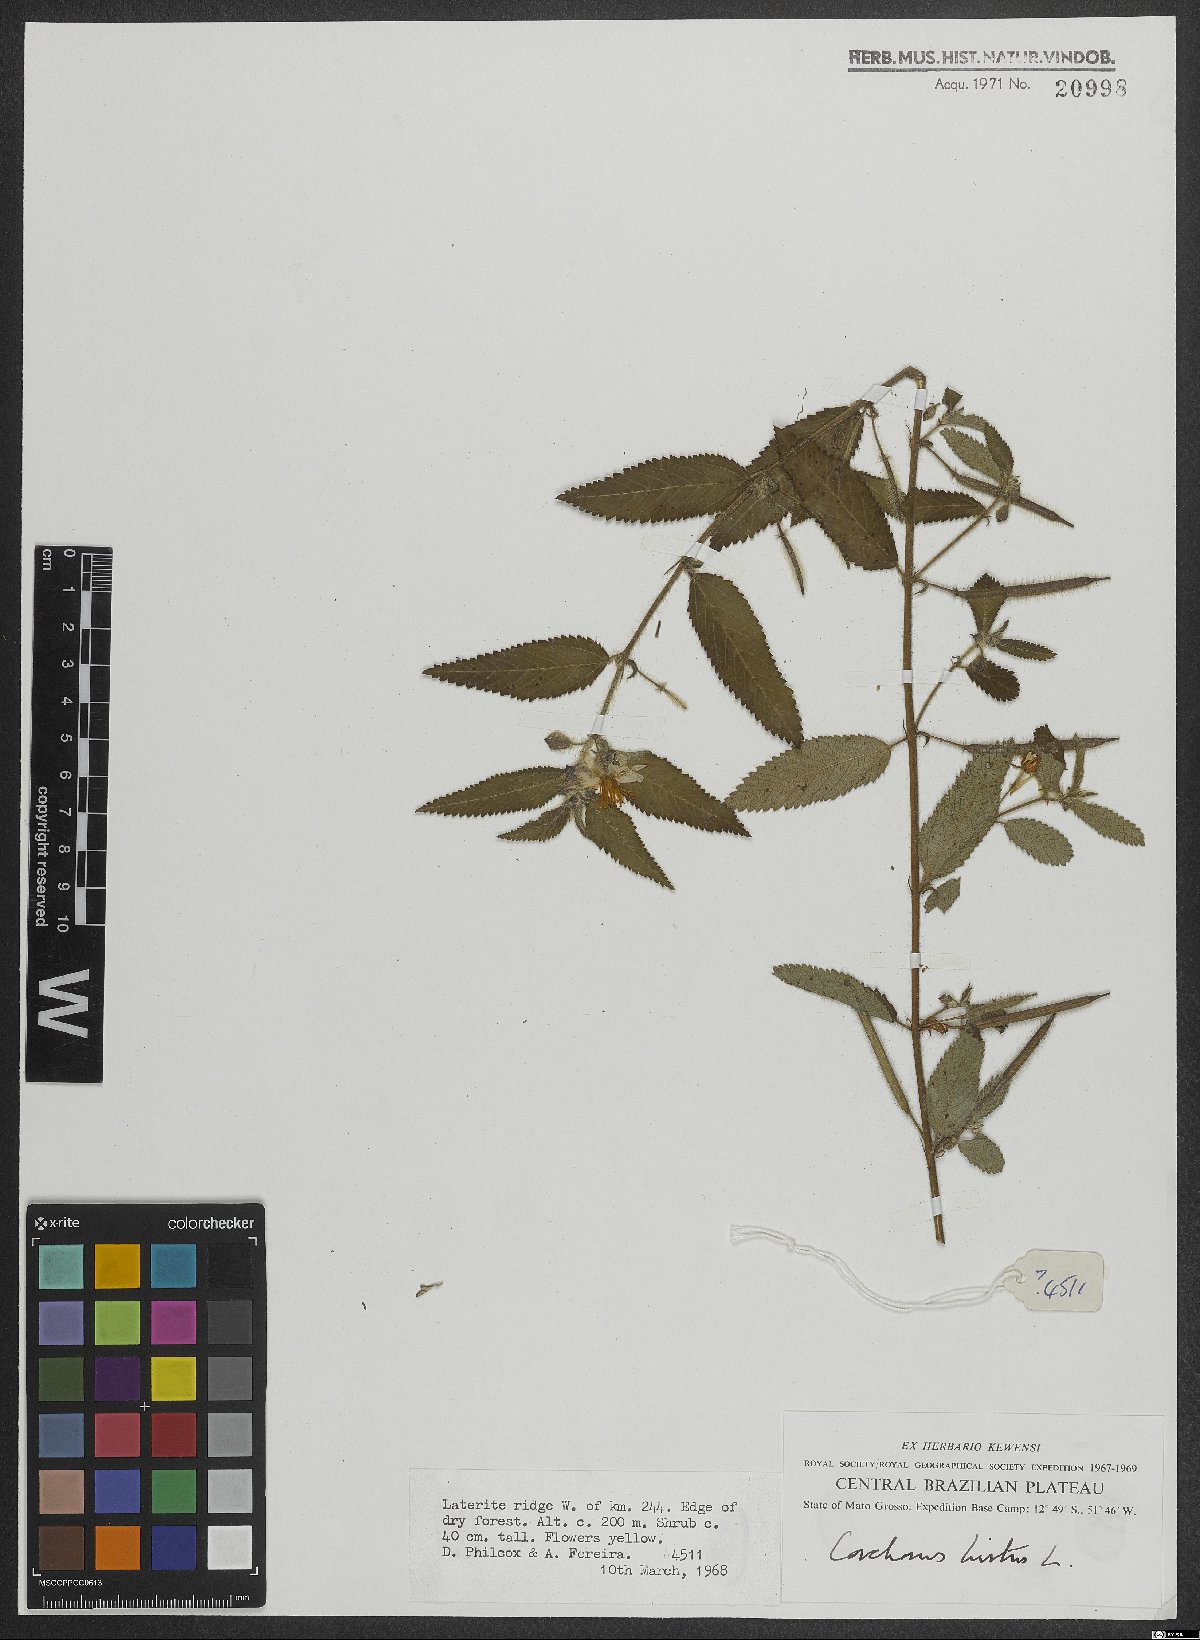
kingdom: Plantae
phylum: Tracheophyta
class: Magnoliopsida
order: Malvales
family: Malvaceae
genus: Corchorus
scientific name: Corchorus hirtus
